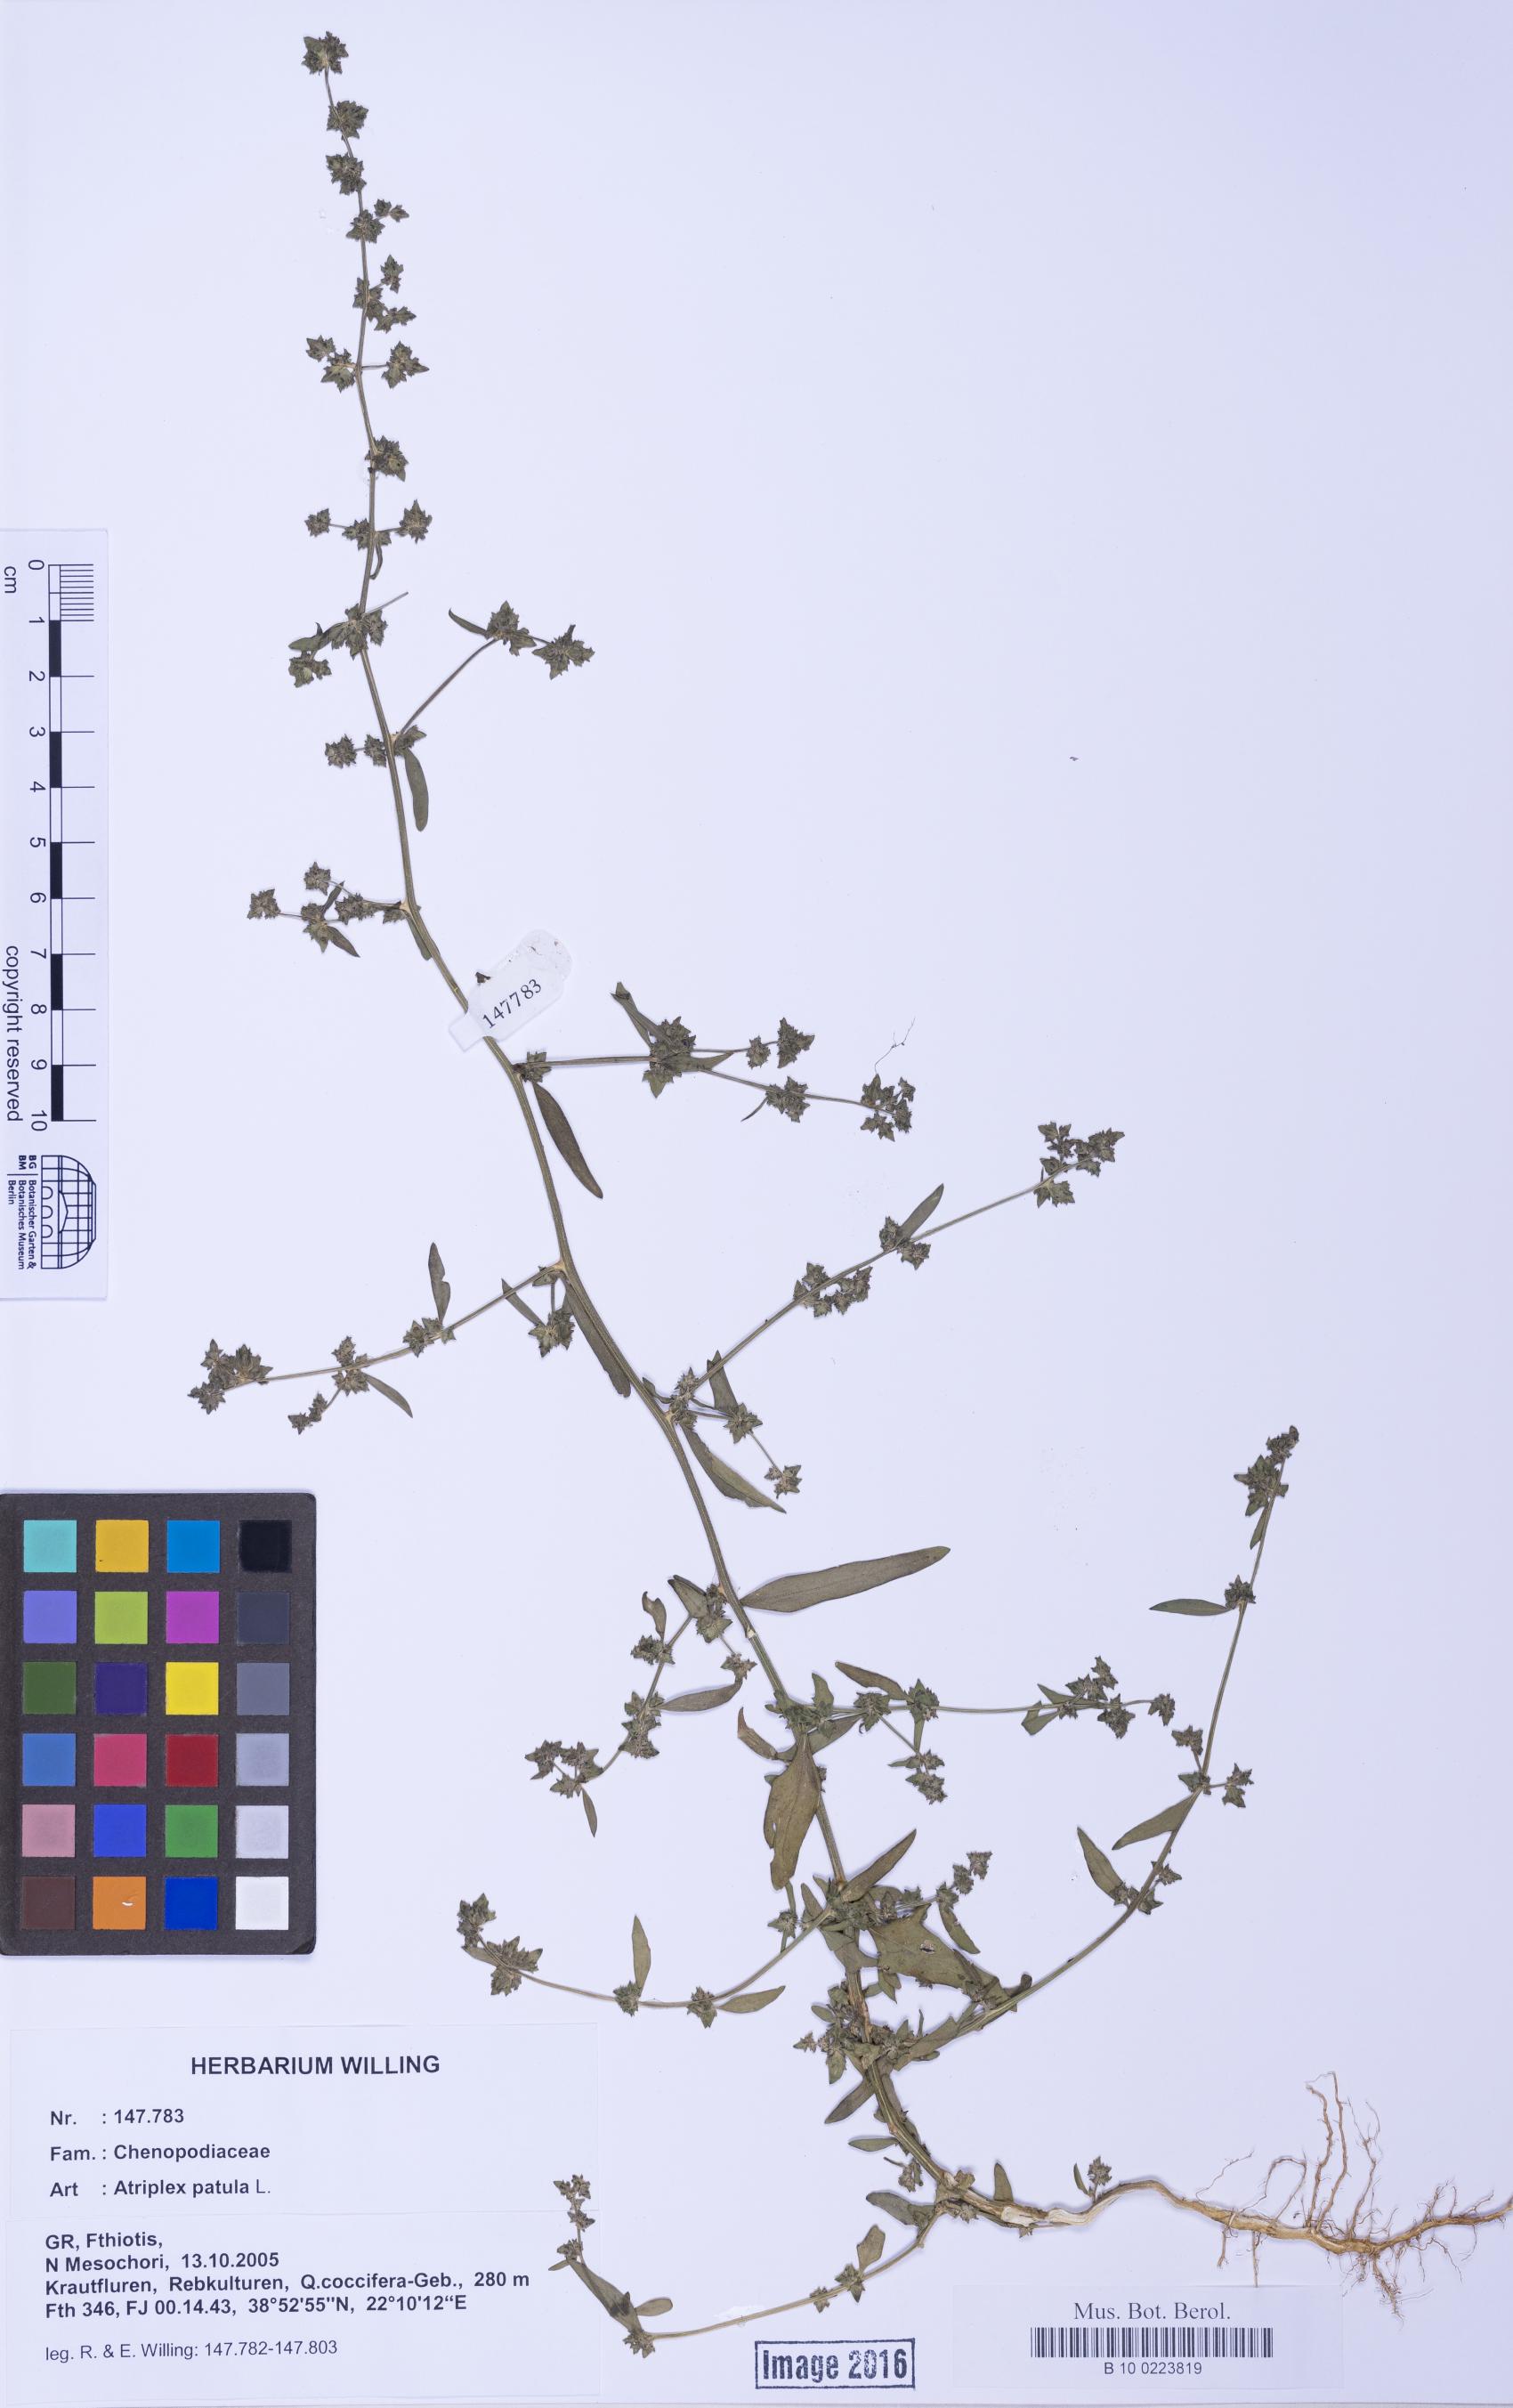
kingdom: Plantae
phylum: Tracheophyta
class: Magnoliopsida
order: Caryophyllales
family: Amaranthaceae
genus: Atriplex
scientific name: Atriplex patula
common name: Common orache
